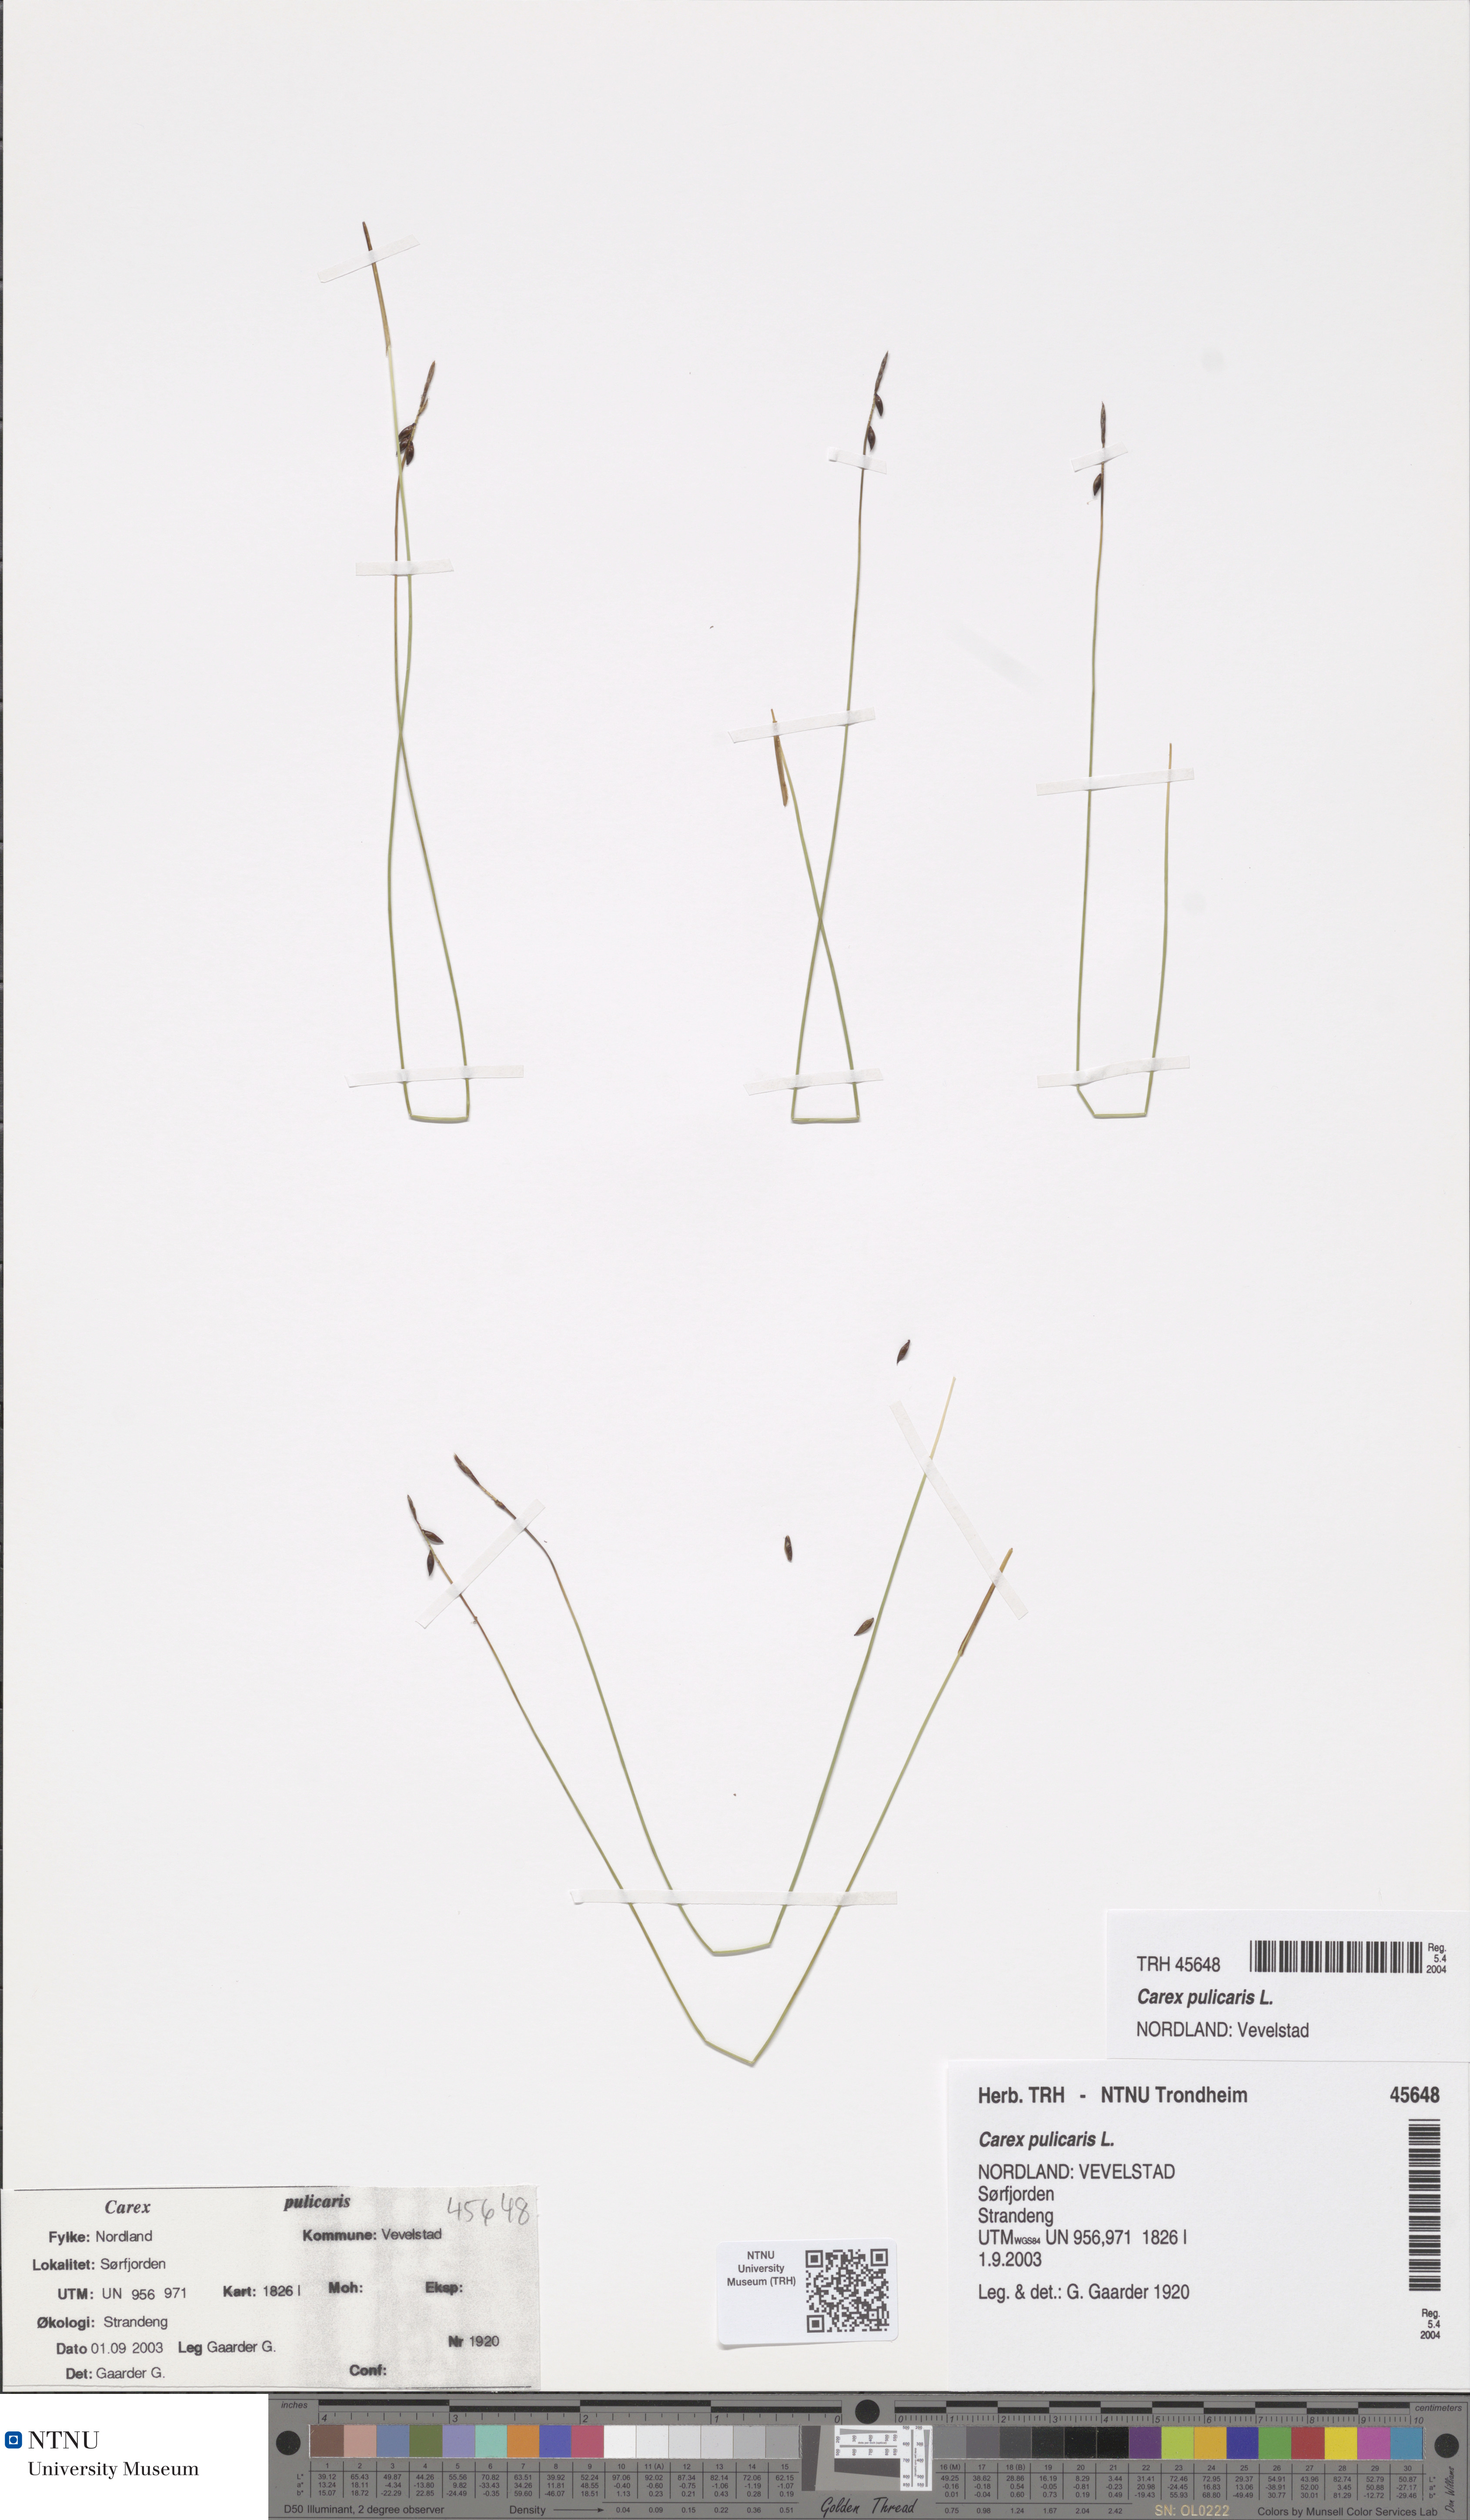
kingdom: Plantae
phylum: Tracheophyta
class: Liliopsida
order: Poales
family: Cyperaceae
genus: Carex
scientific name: Carex pulicaris
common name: Flea sedge
